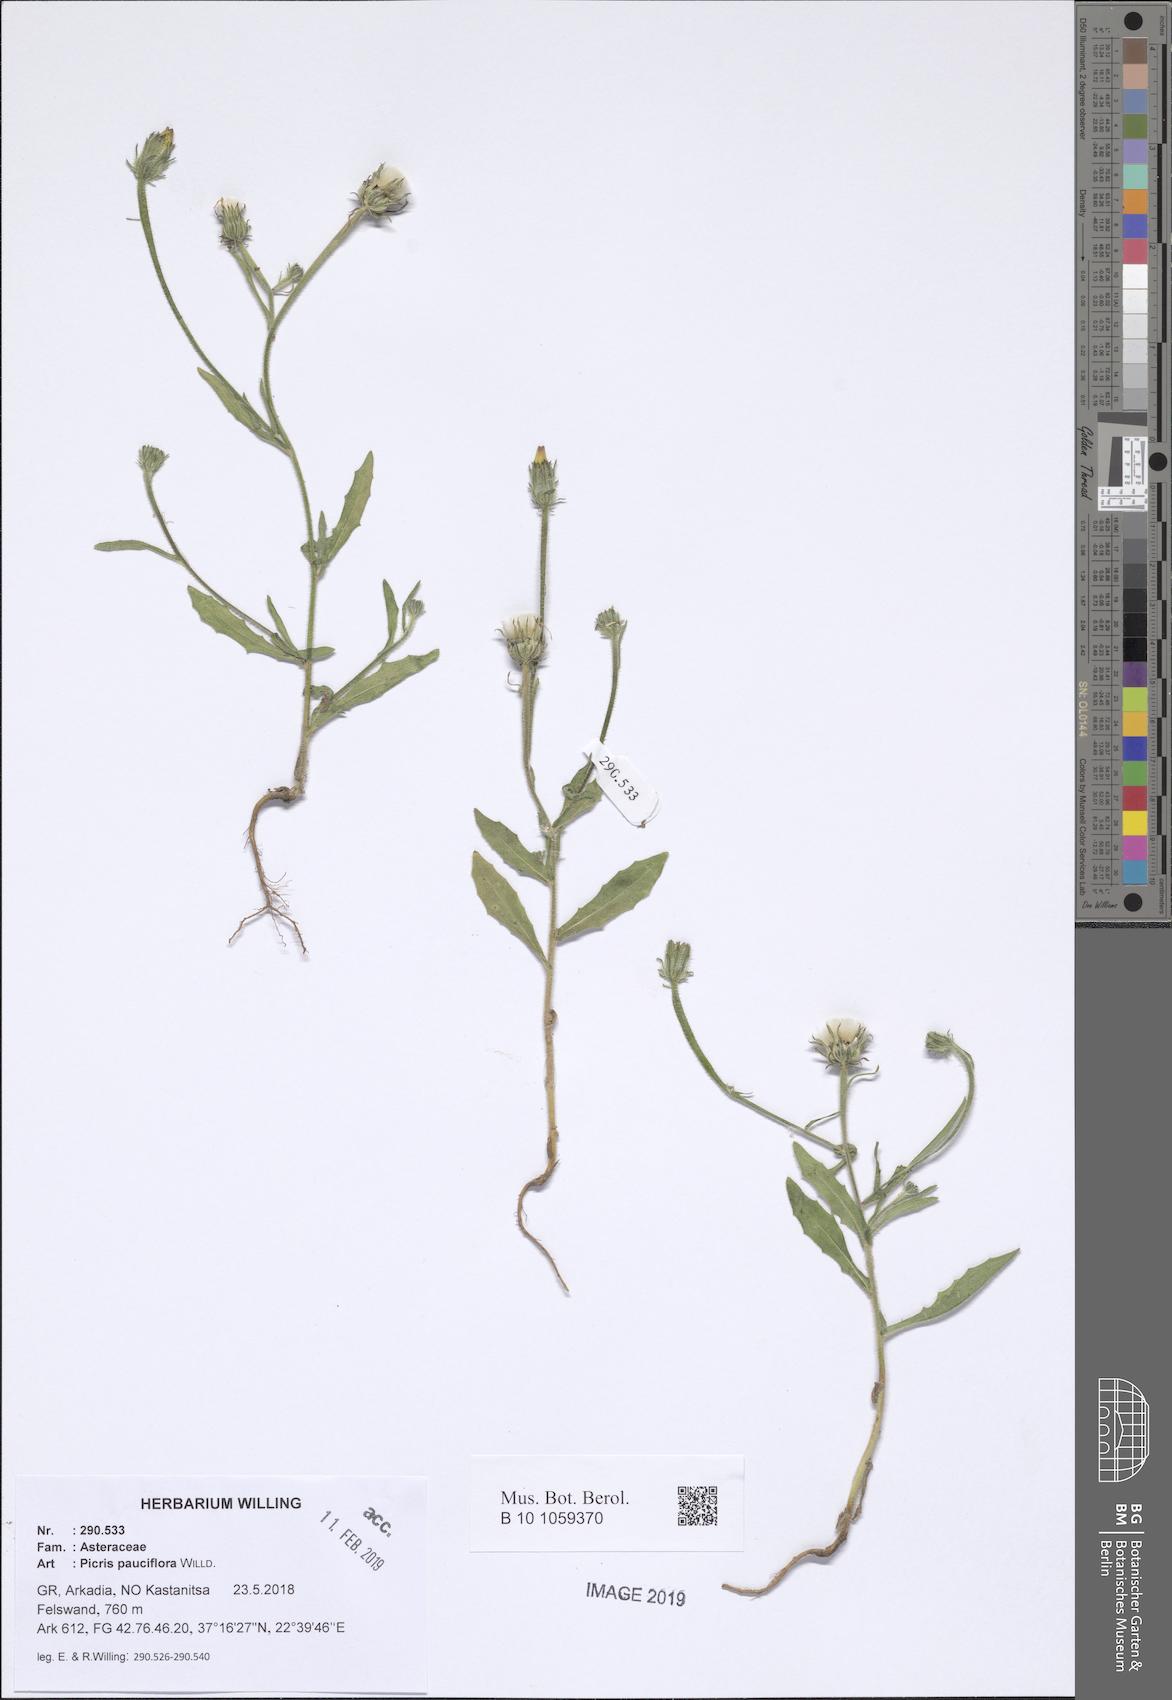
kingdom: Plantae
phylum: Tracheophyta
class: Magnoliopsida
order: Asterales
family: Asteraceae
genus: Picris
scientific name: Picris pauciflora
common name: Smallflower oxtongue
